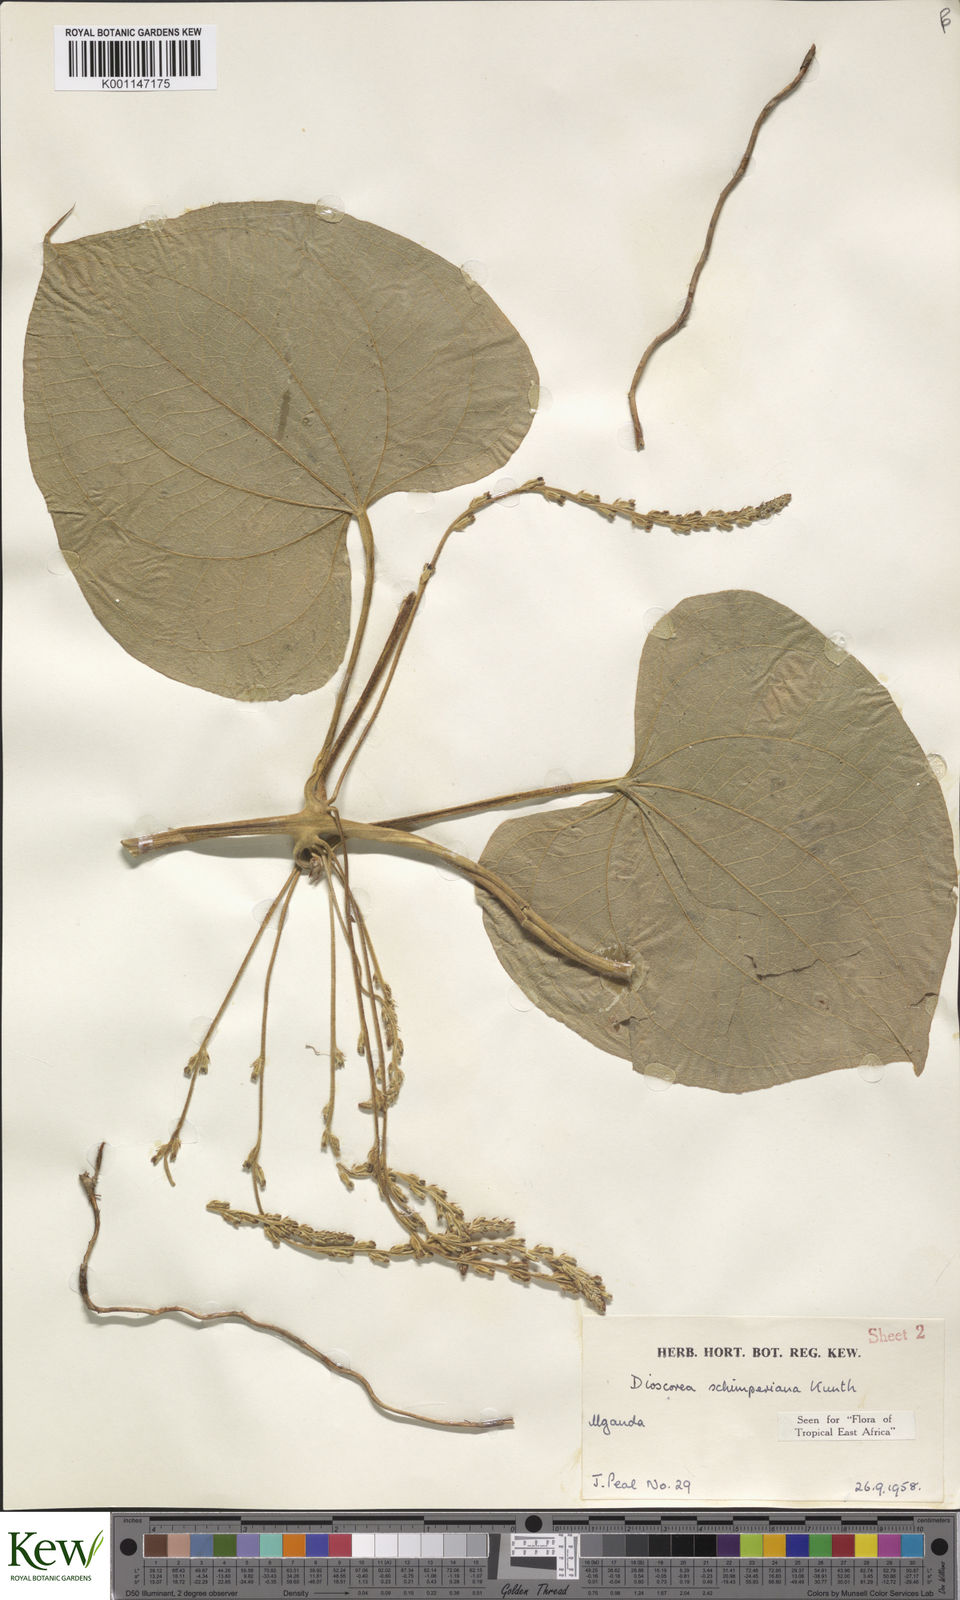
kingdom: Plantae
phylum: Tracheophyta
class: Liliopsida
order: Dioscoreales
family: Dioscoreaceae
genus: Dioscorea
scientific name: Dioscorea schimperiana
